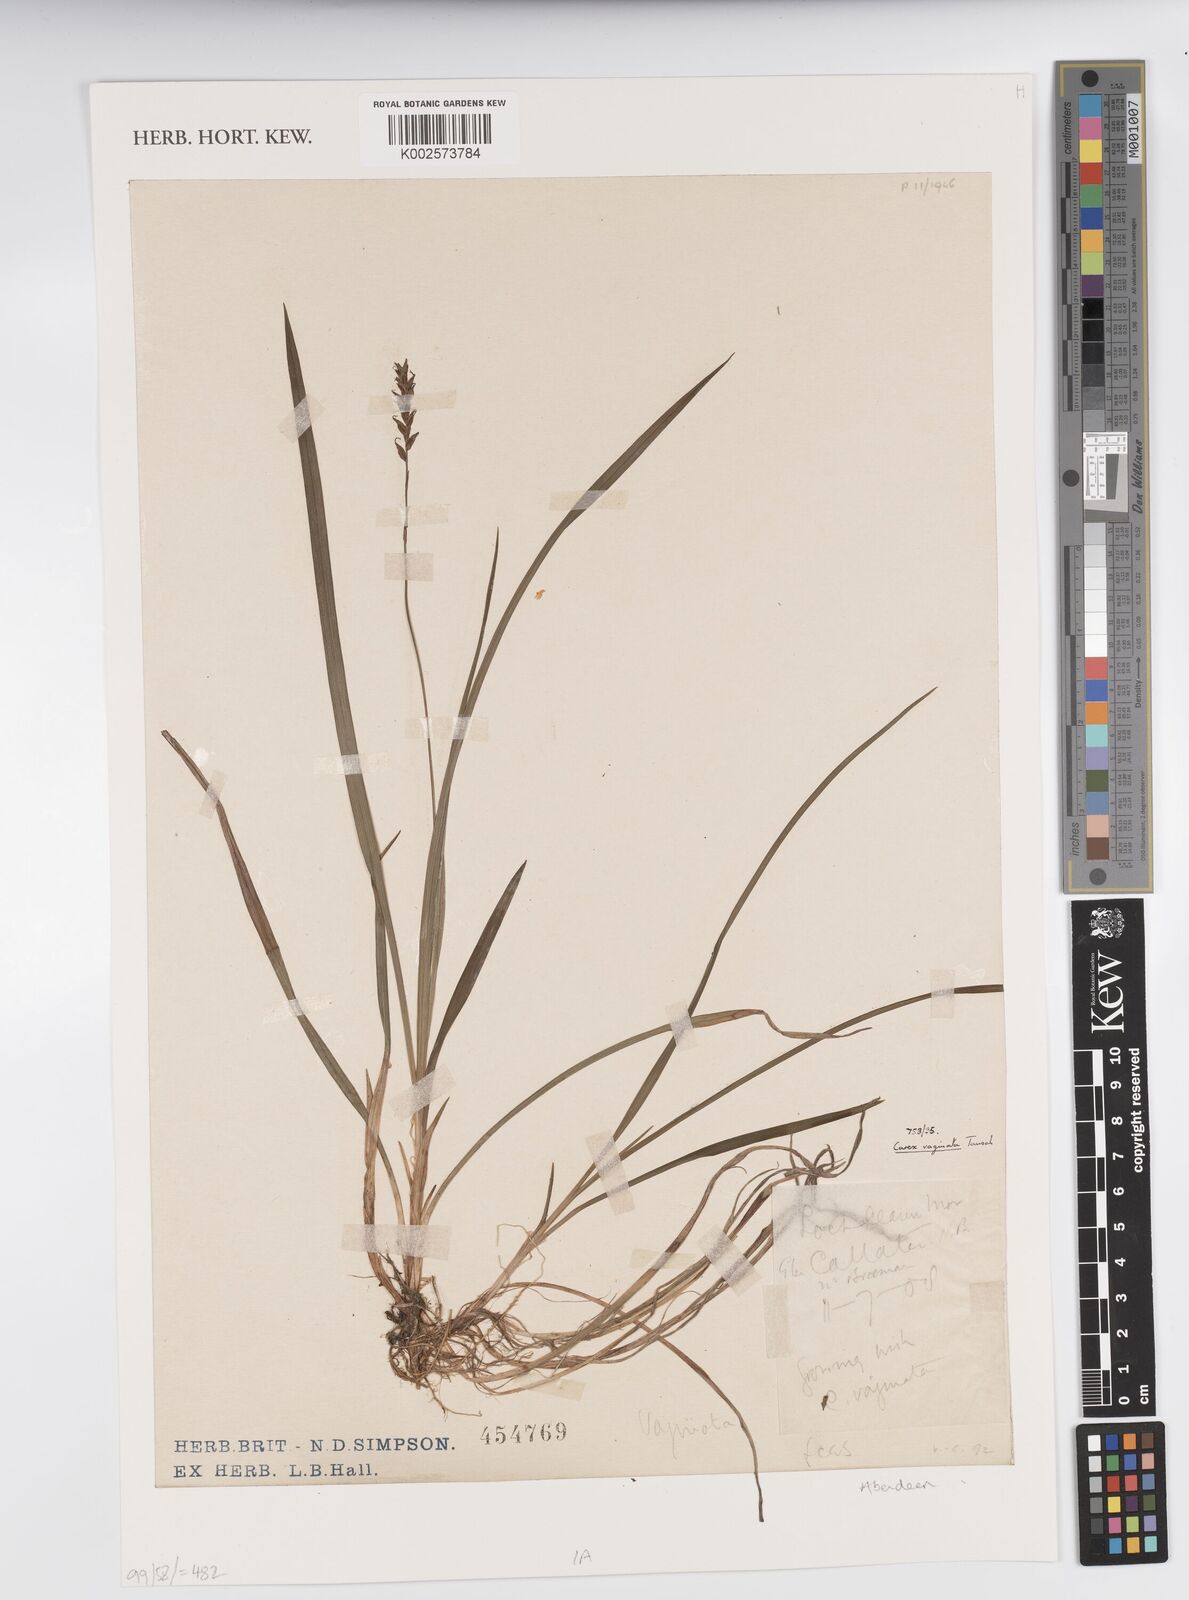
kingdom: Plantae
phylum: Tracheophyta
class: Liliopsida
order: Poales
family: Cyperaceae
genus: Carex
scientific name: Carex vaginata
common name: Sheathed sedge
